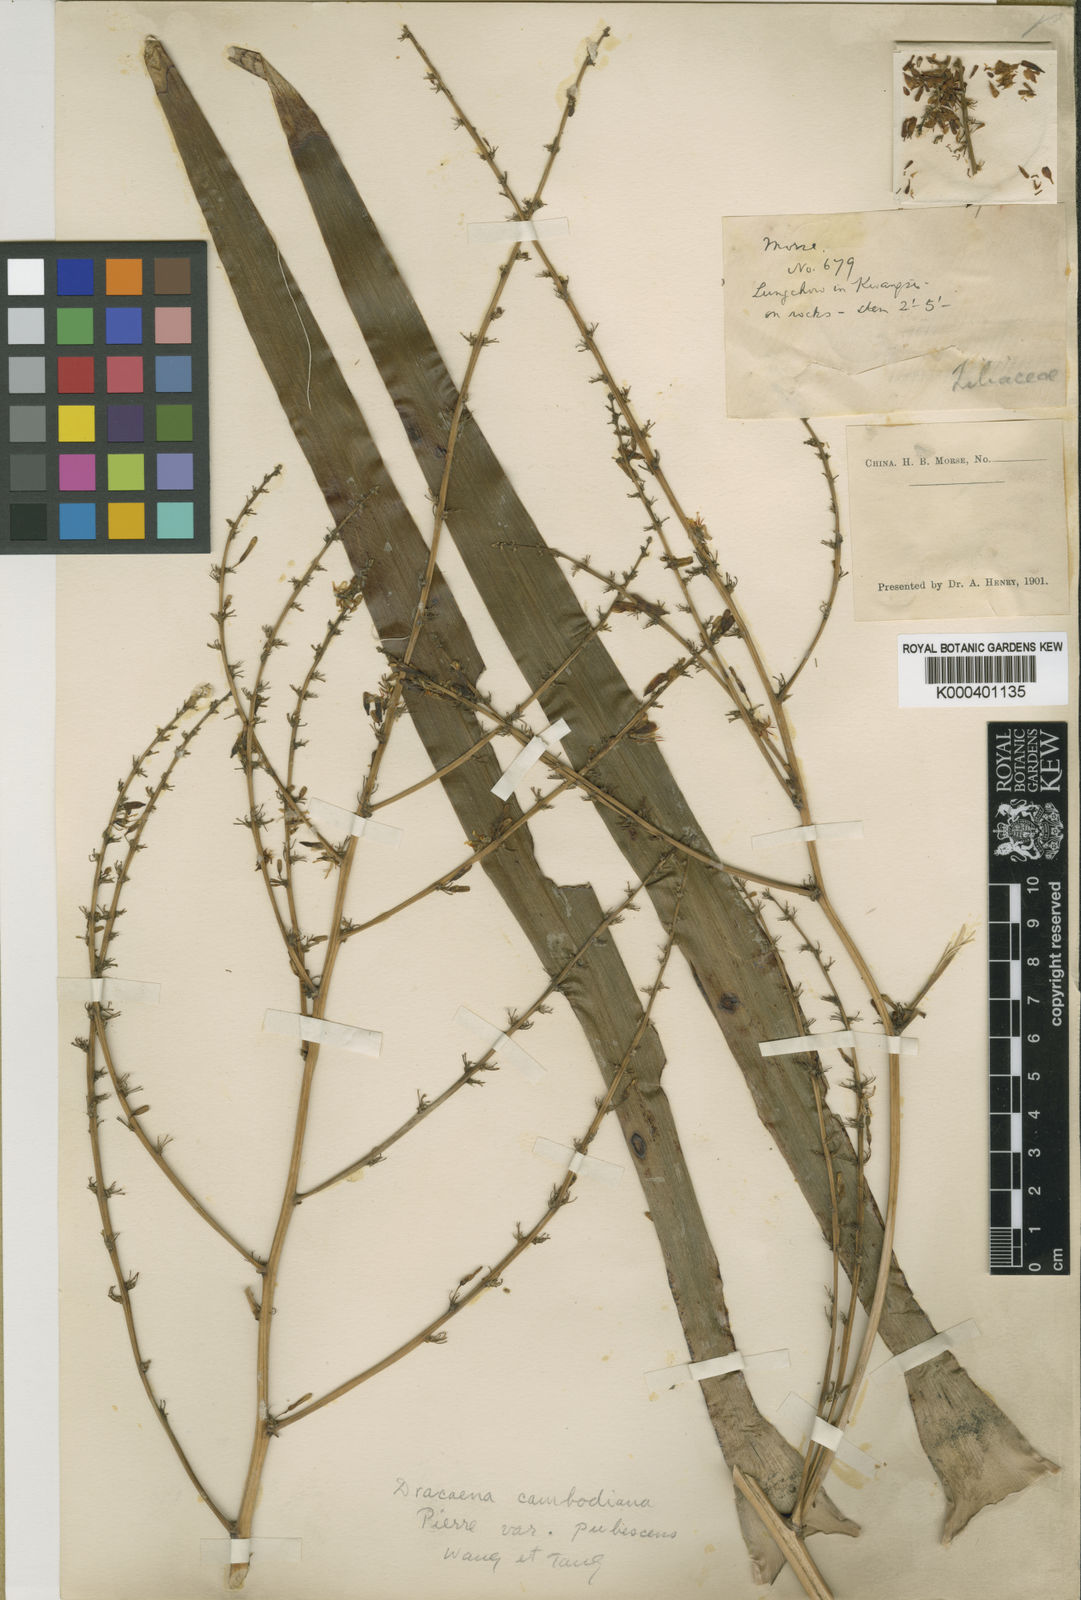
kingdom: Plantae
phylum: Tracheophyta
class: Liliopsida
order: Asparagales
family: Asparagaceae
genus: Dracaena
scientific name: Dracaena cambodiana
